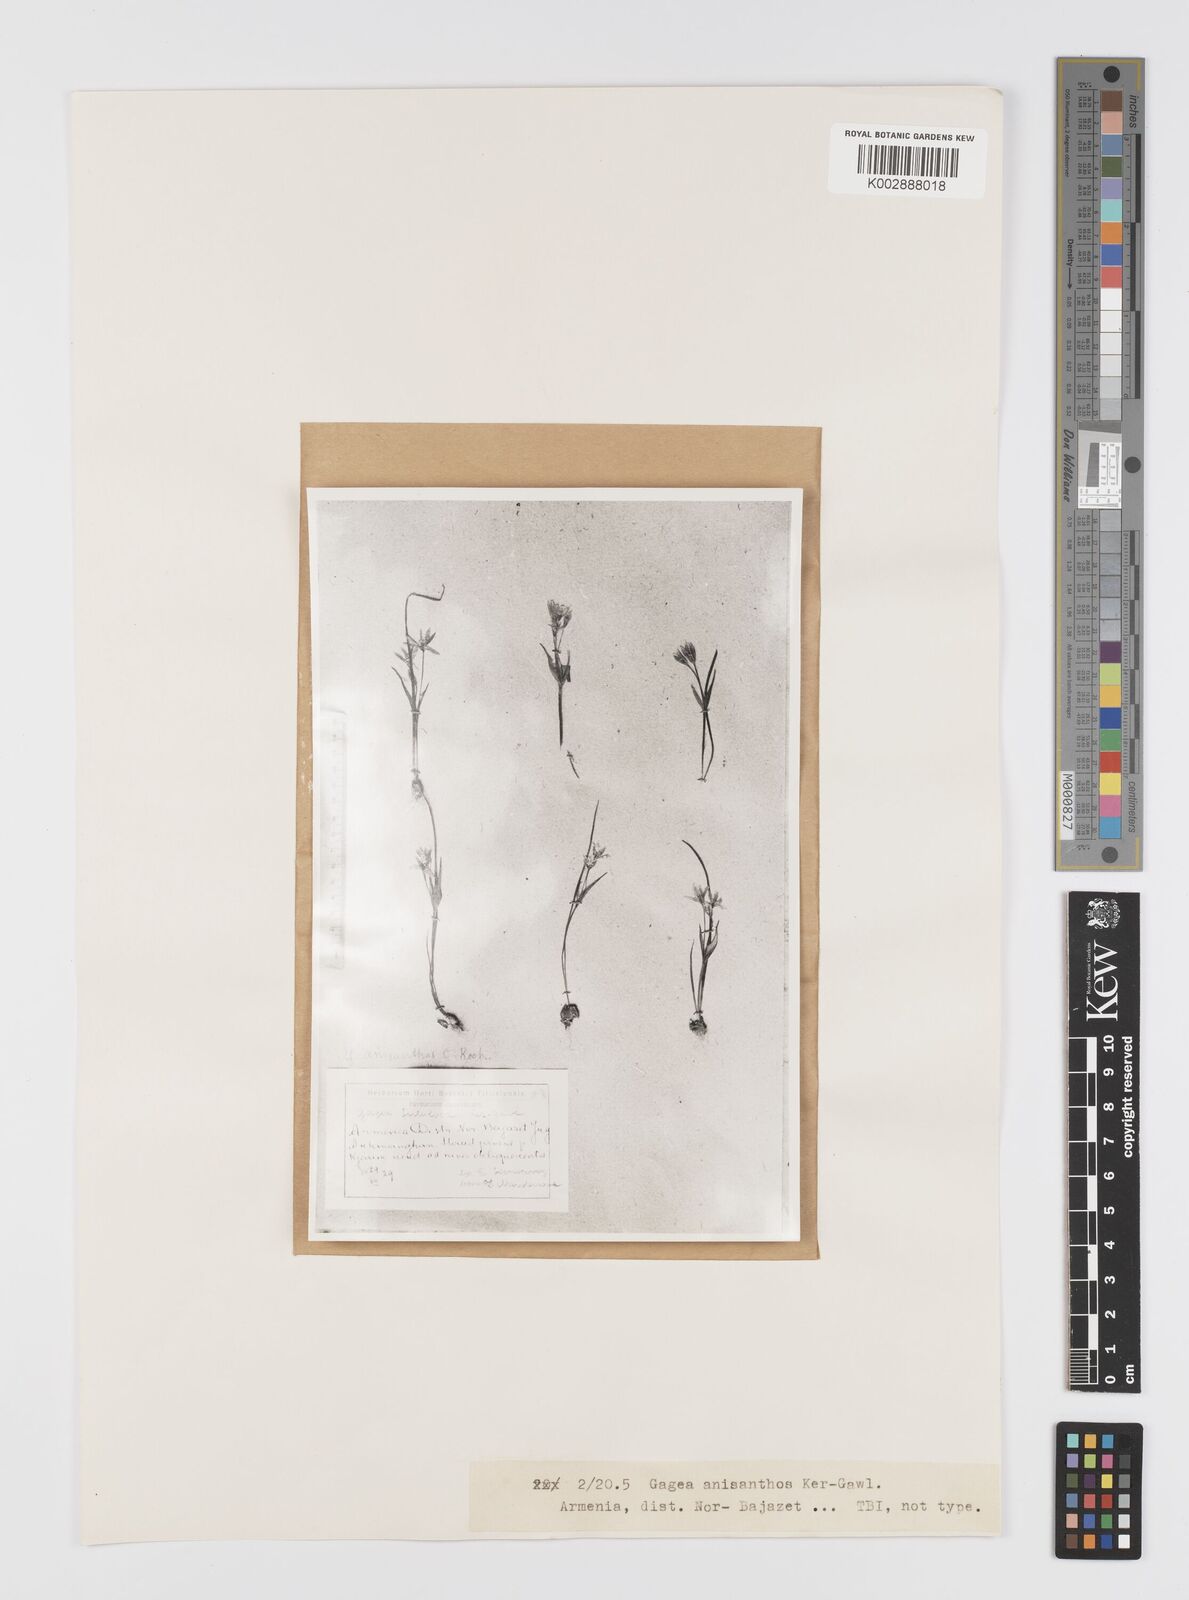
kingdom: Plantae
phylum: Tracheophyta
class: Liliopsida
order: Liliales
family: Liliaceae
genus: Gagea
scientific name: Gagea fragifera
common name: Lily
